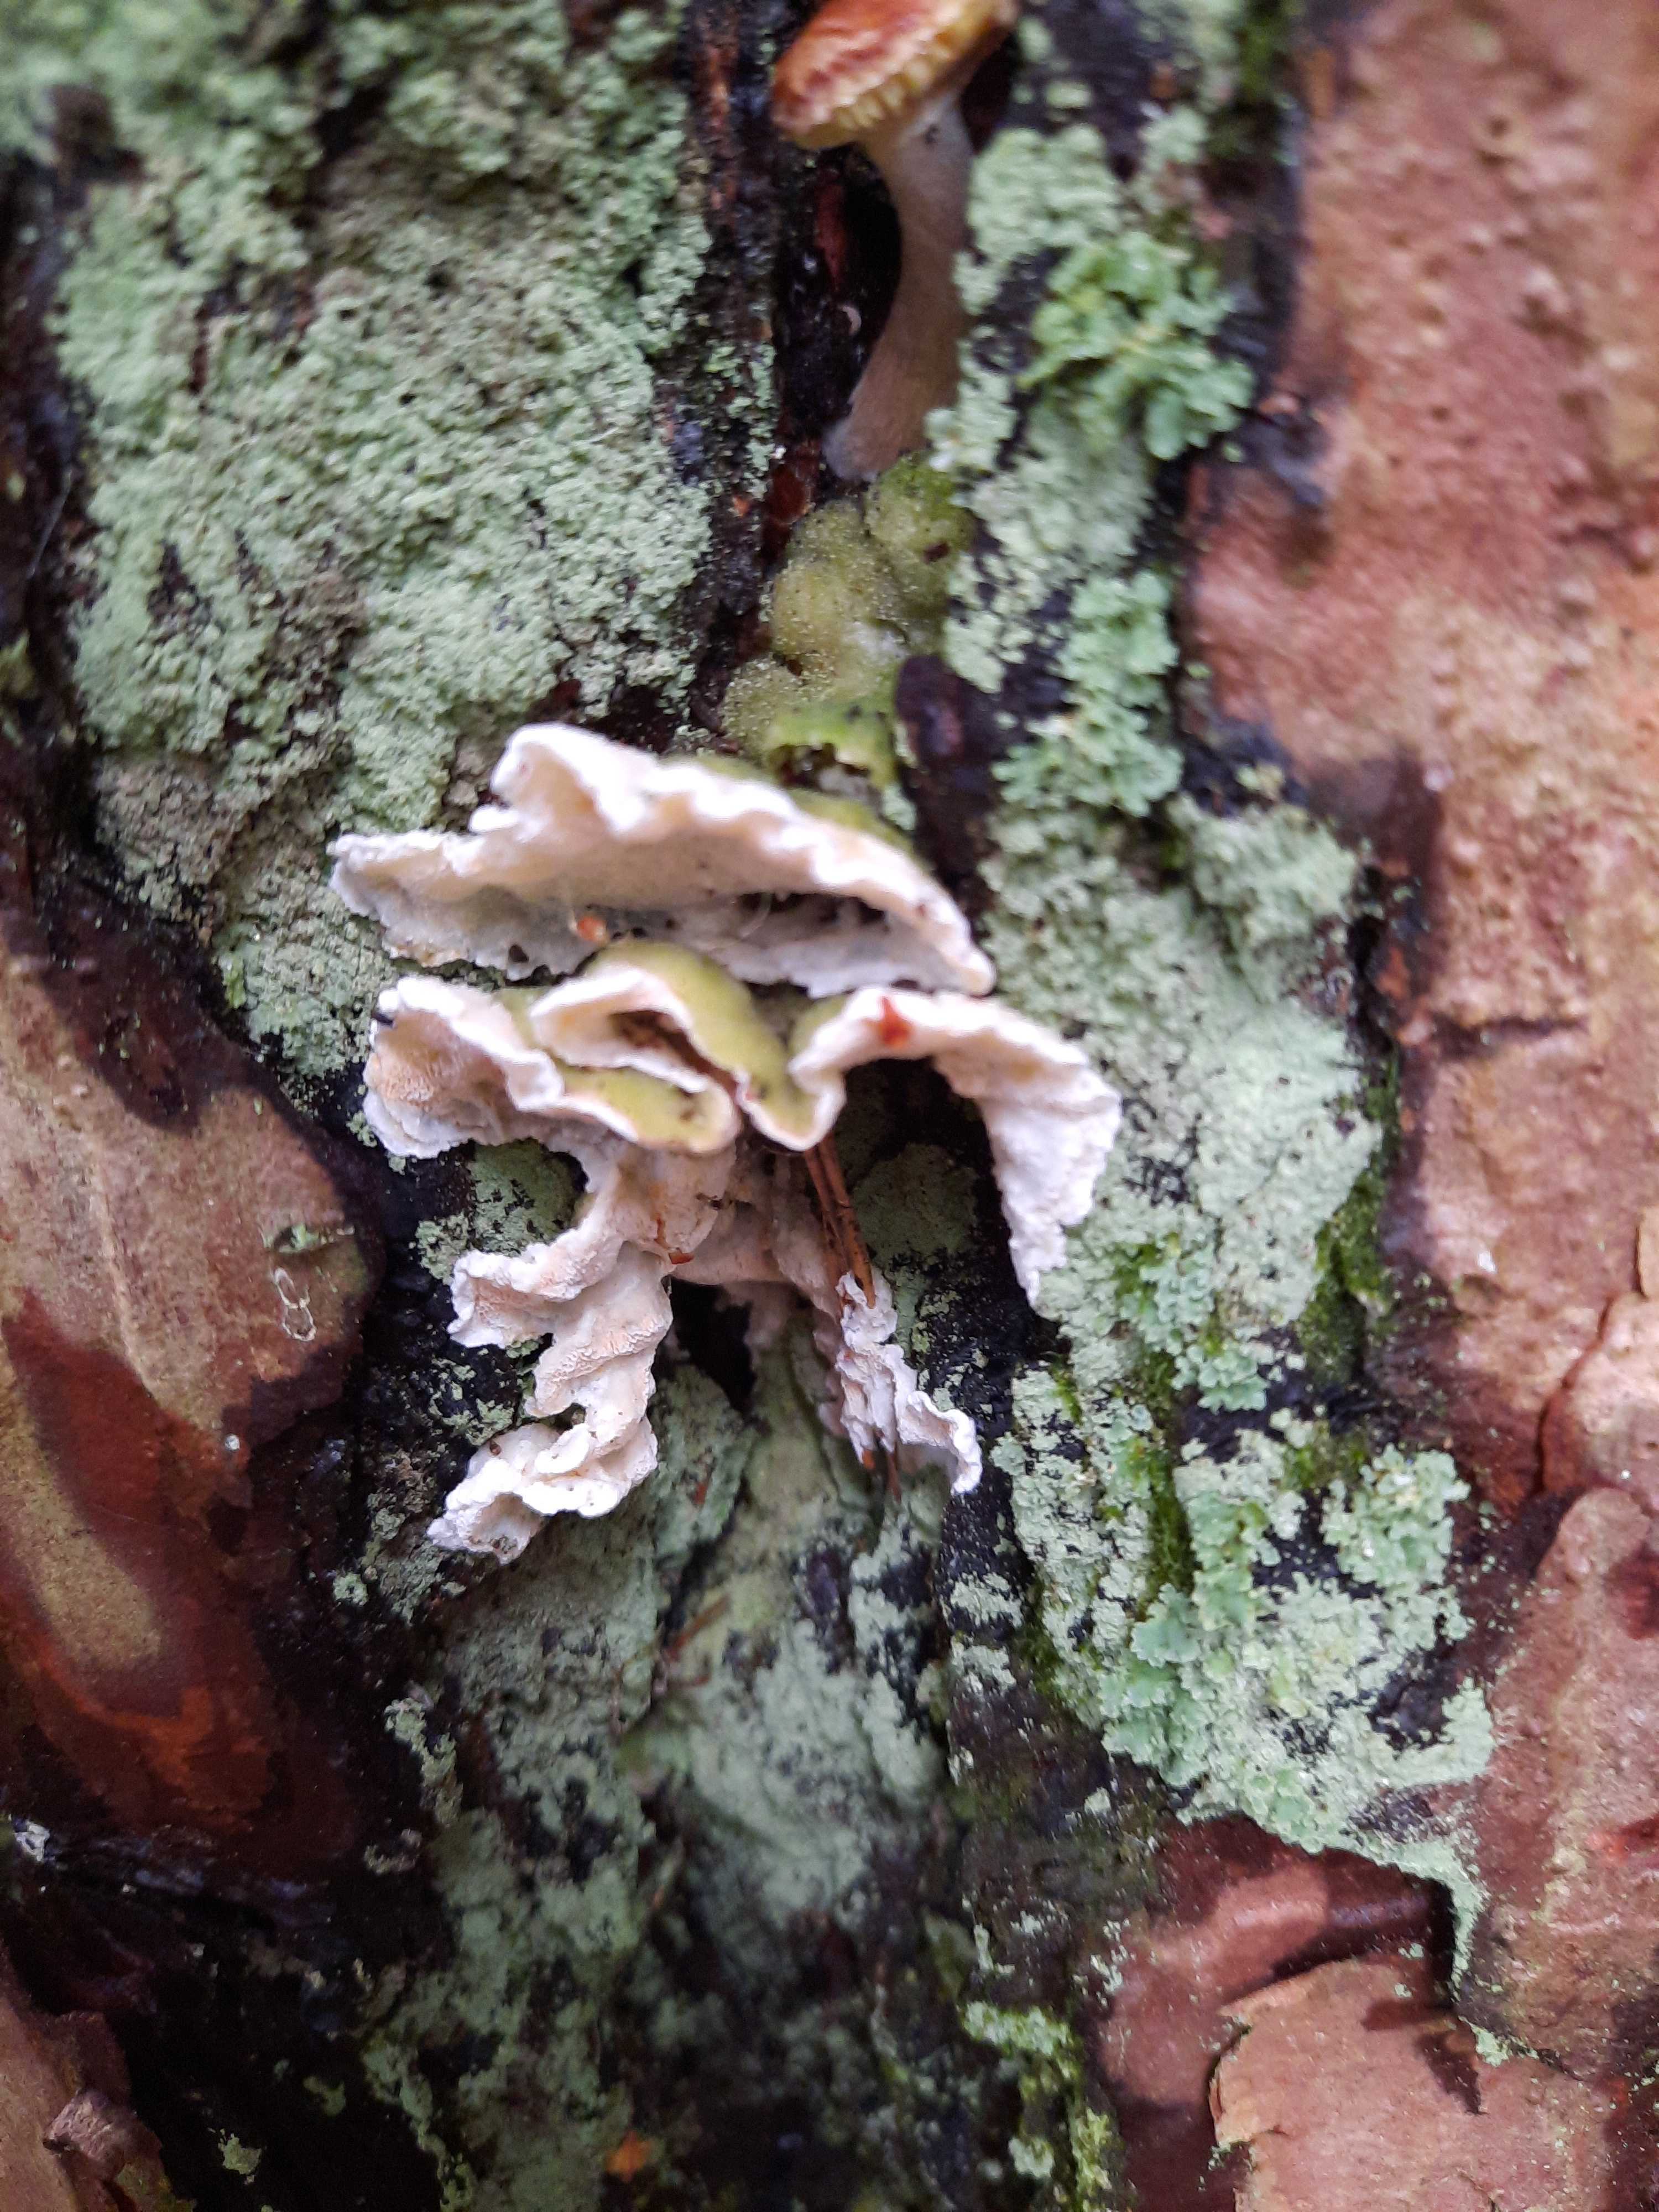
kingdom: Fungi
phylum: Basidiomycota
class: Agaricomycetes
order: Polyporales
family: Incrustoporiaceae
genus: Skeletocutis
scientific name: Skeletocutis amorpha
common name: orange krystalporesvamp
